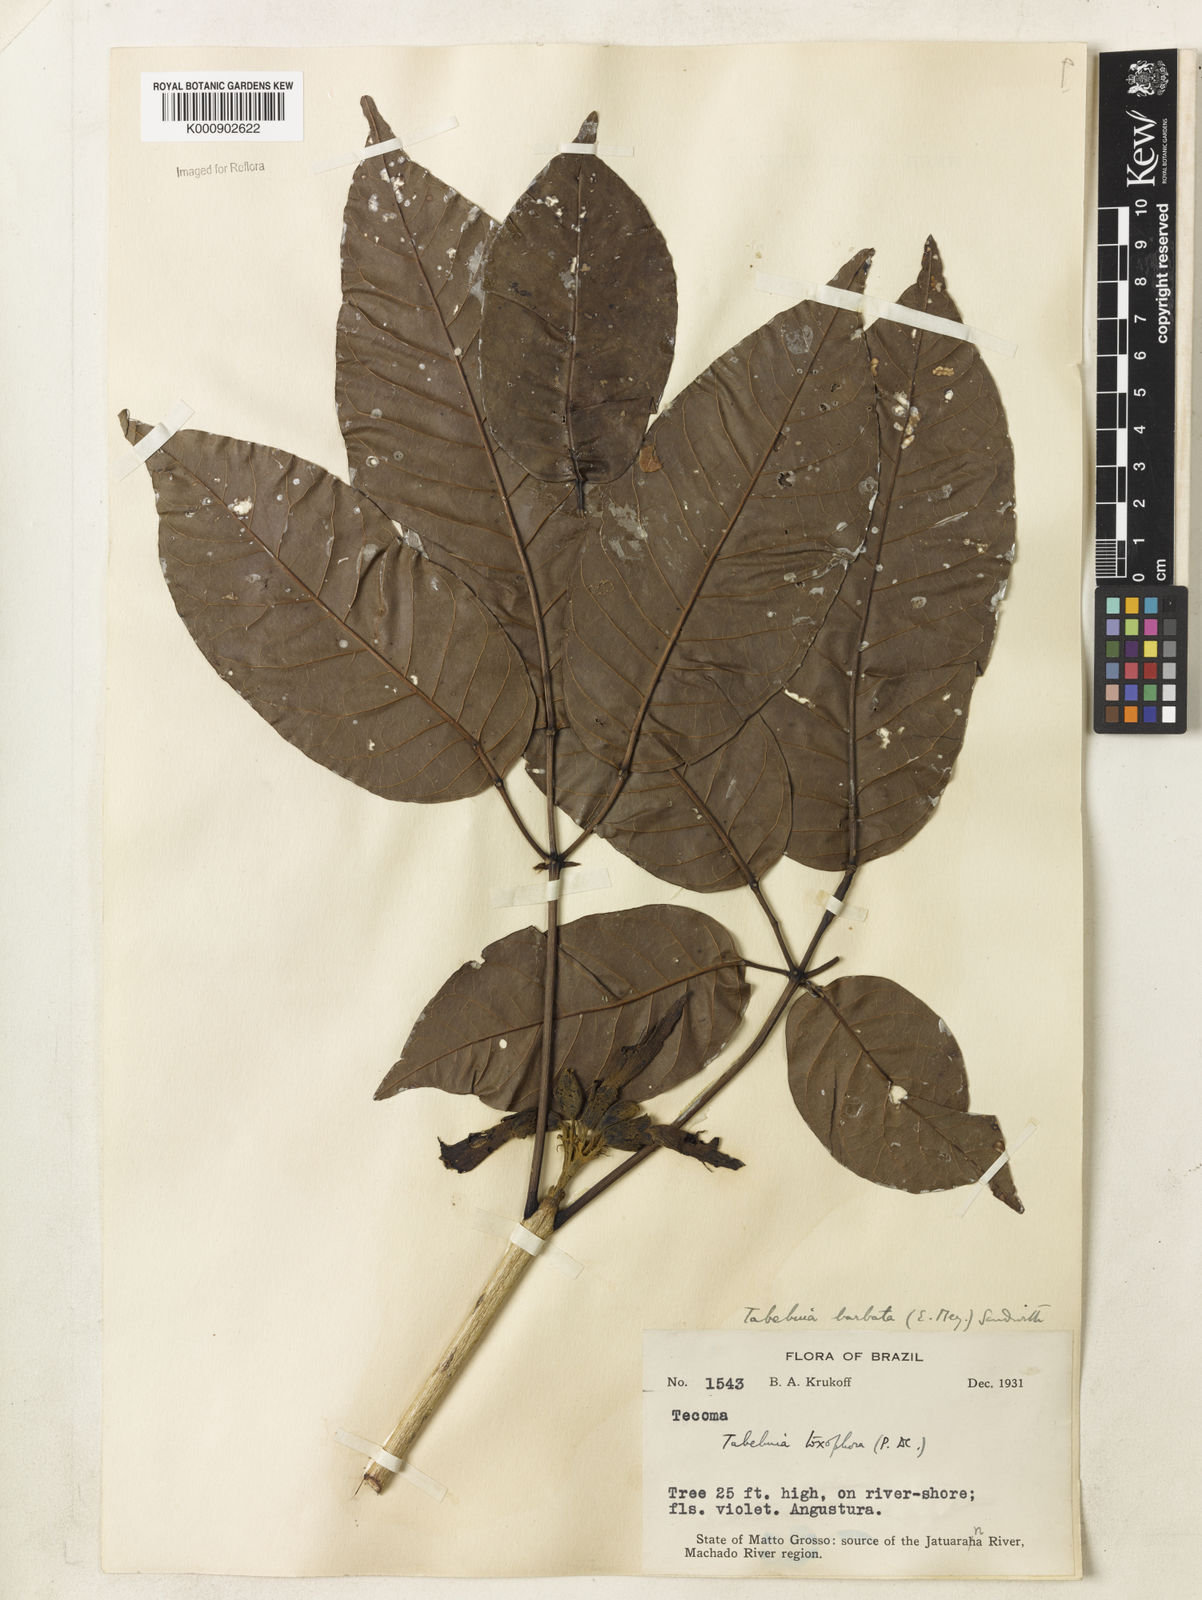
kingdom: Plantae
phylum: Tracheophyta
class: Magnoliopsida
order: Lamiales
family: Bignoniaceae
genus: Handroanthus
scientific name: Handroanthus barbatus
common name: Trumpet trees
